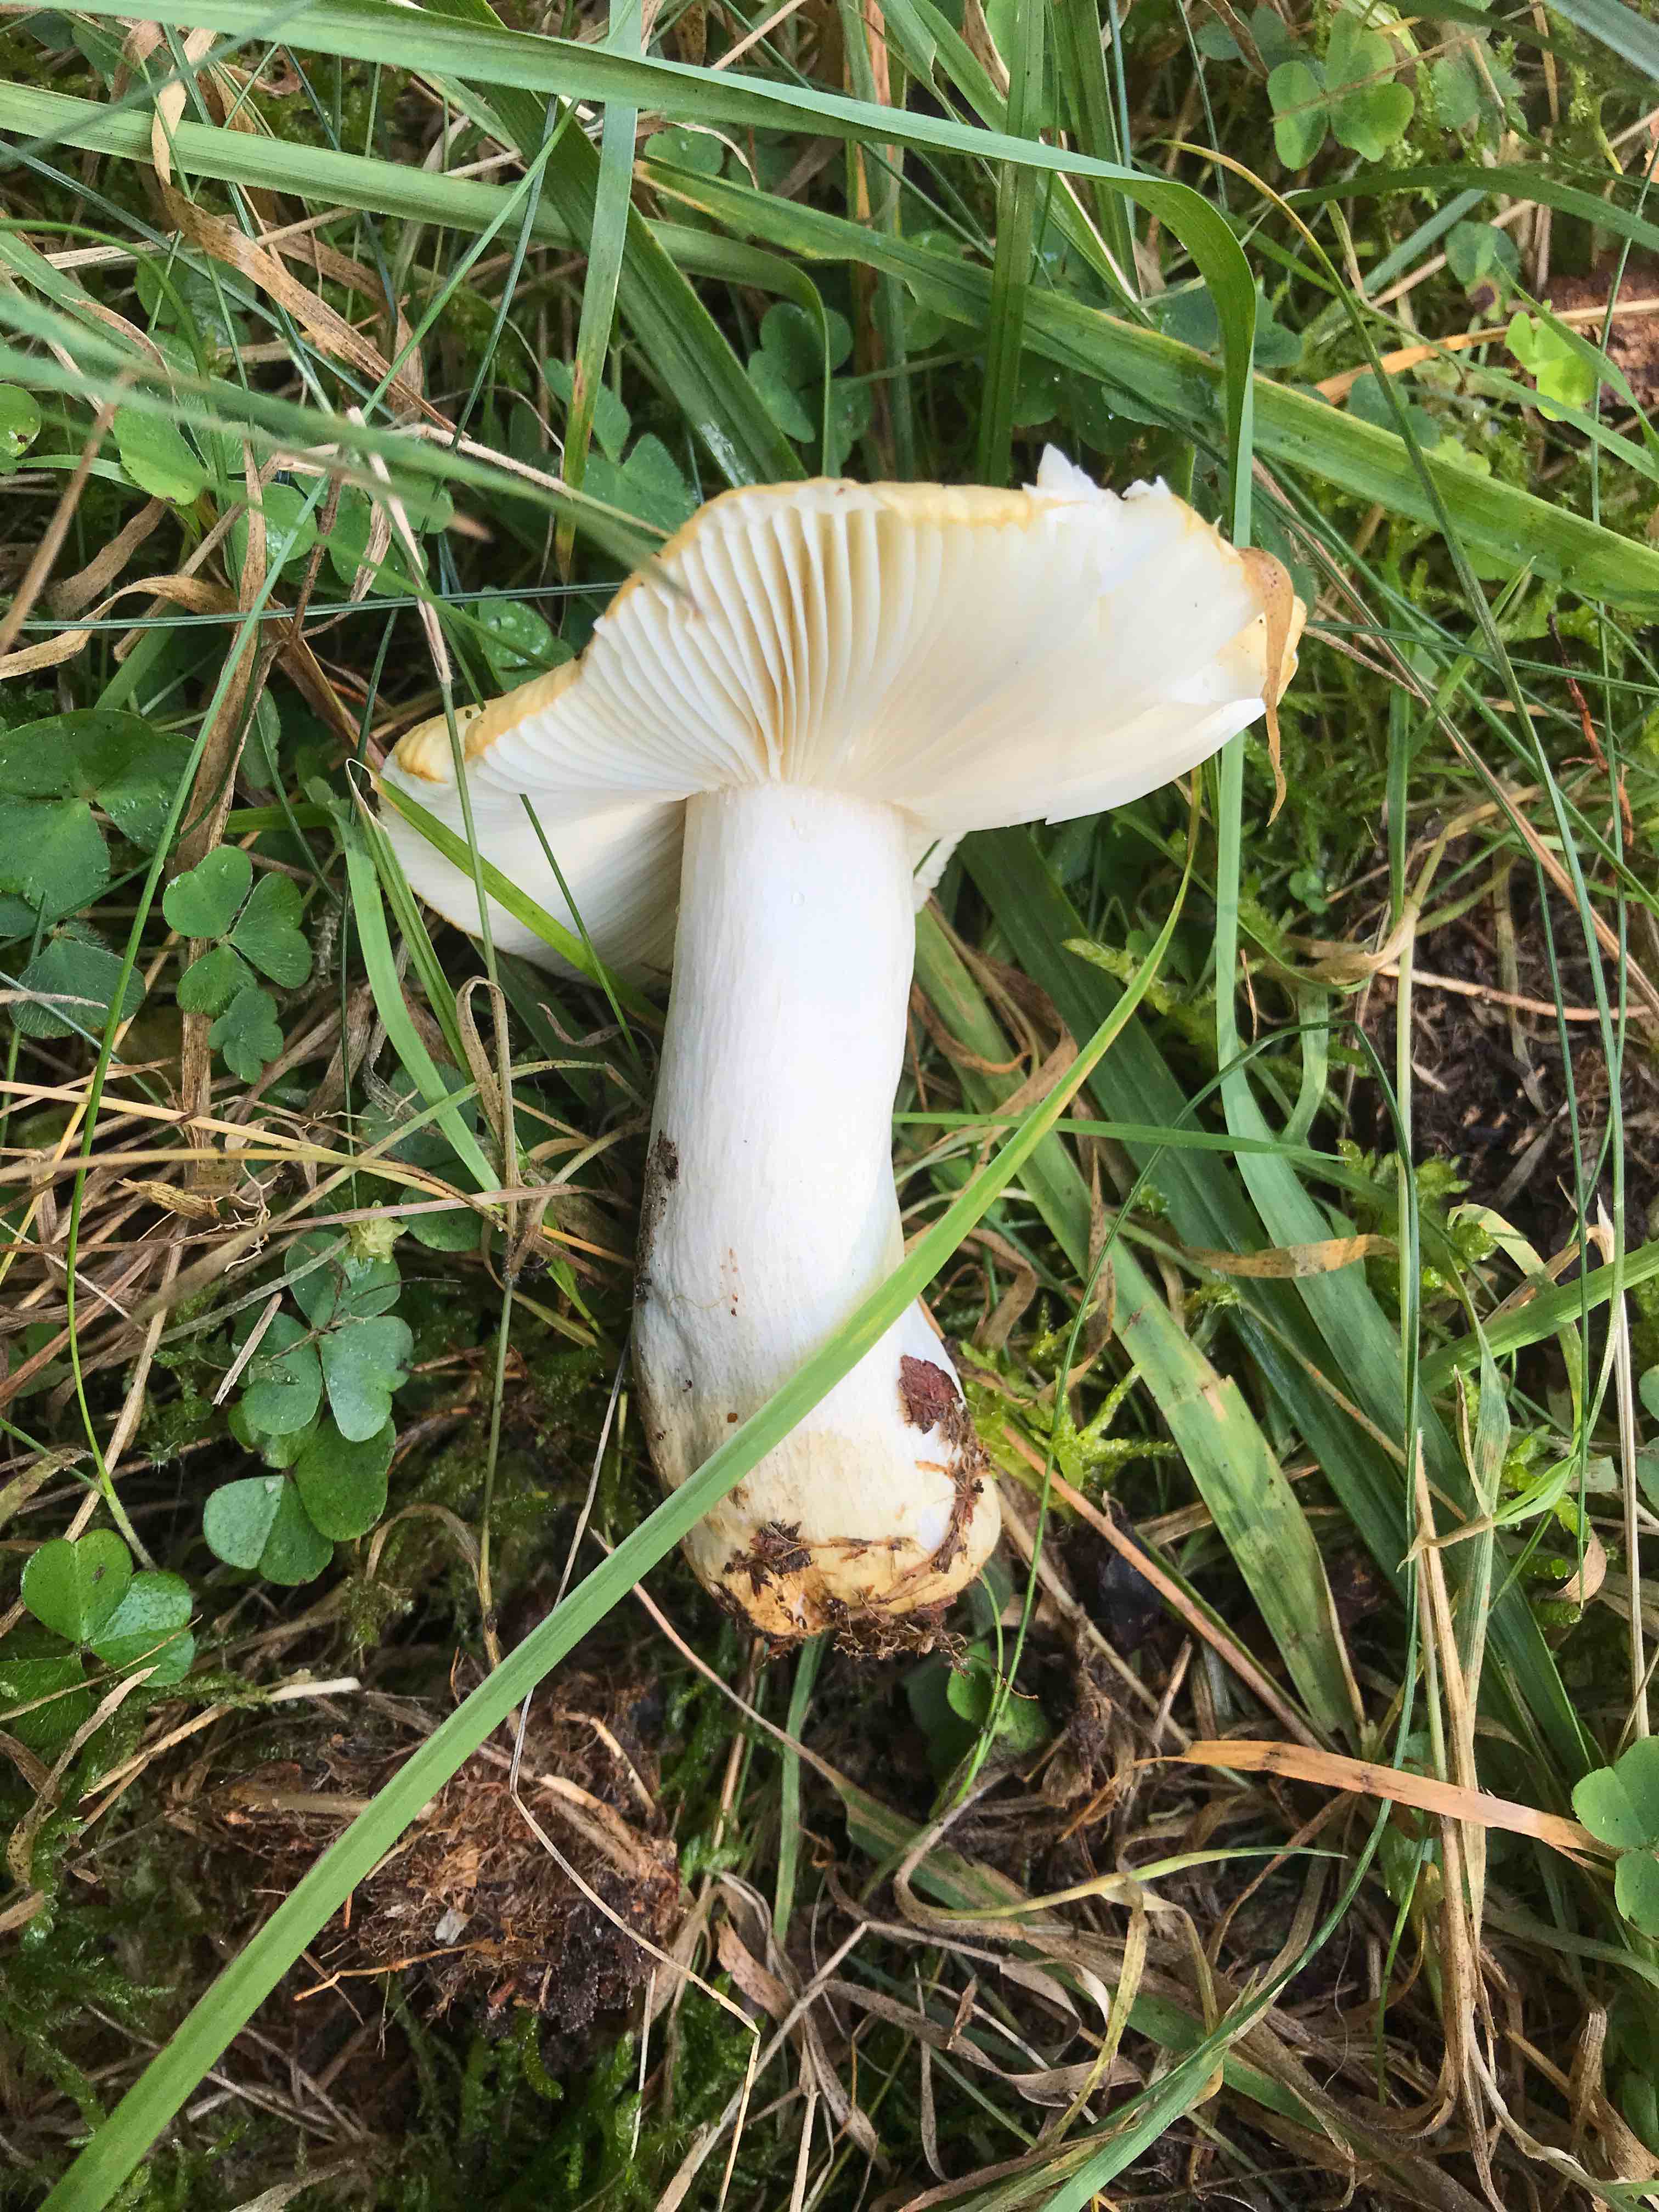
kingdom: Fungi
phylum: Basidiomycota
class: Agaricomycetes
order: Russulales
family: Russulaceae
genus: Russula
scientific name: Russula
